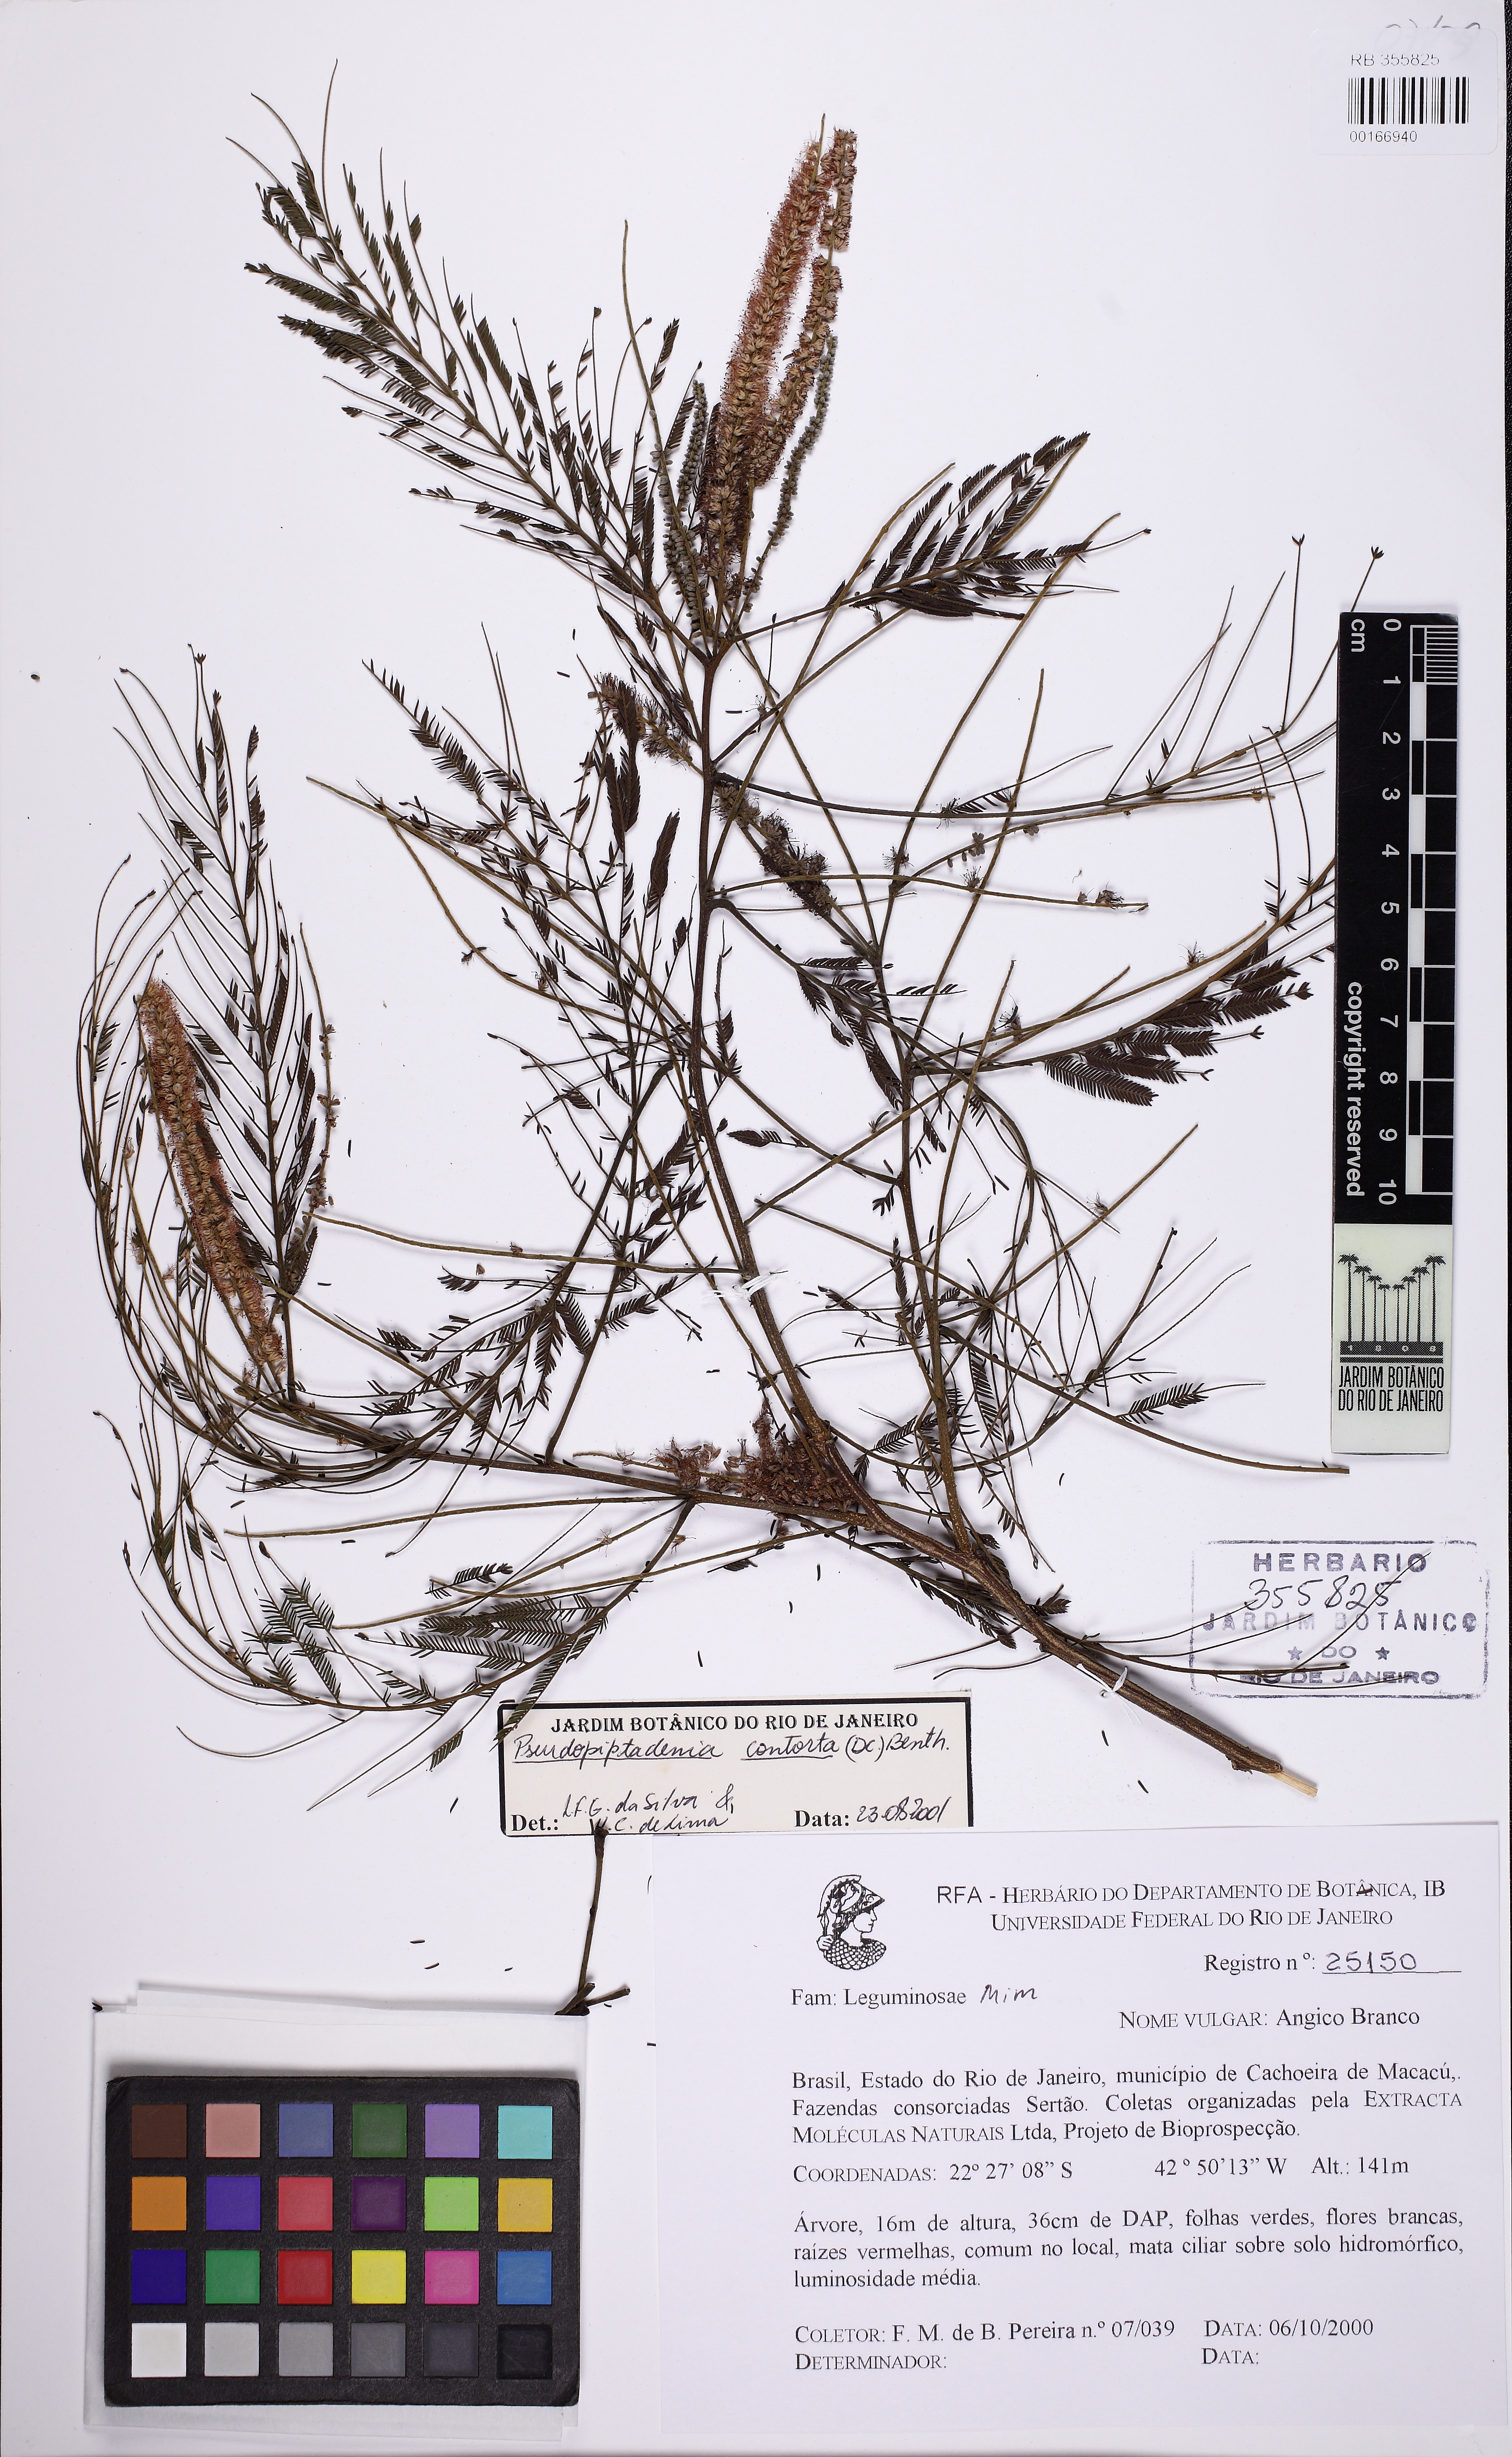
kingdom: Plantae
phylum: Tracheophyta
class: Magnoliopsida
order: Fabales
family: Fabaceae
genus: Nissolia
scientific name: Nissolia fruticosa
